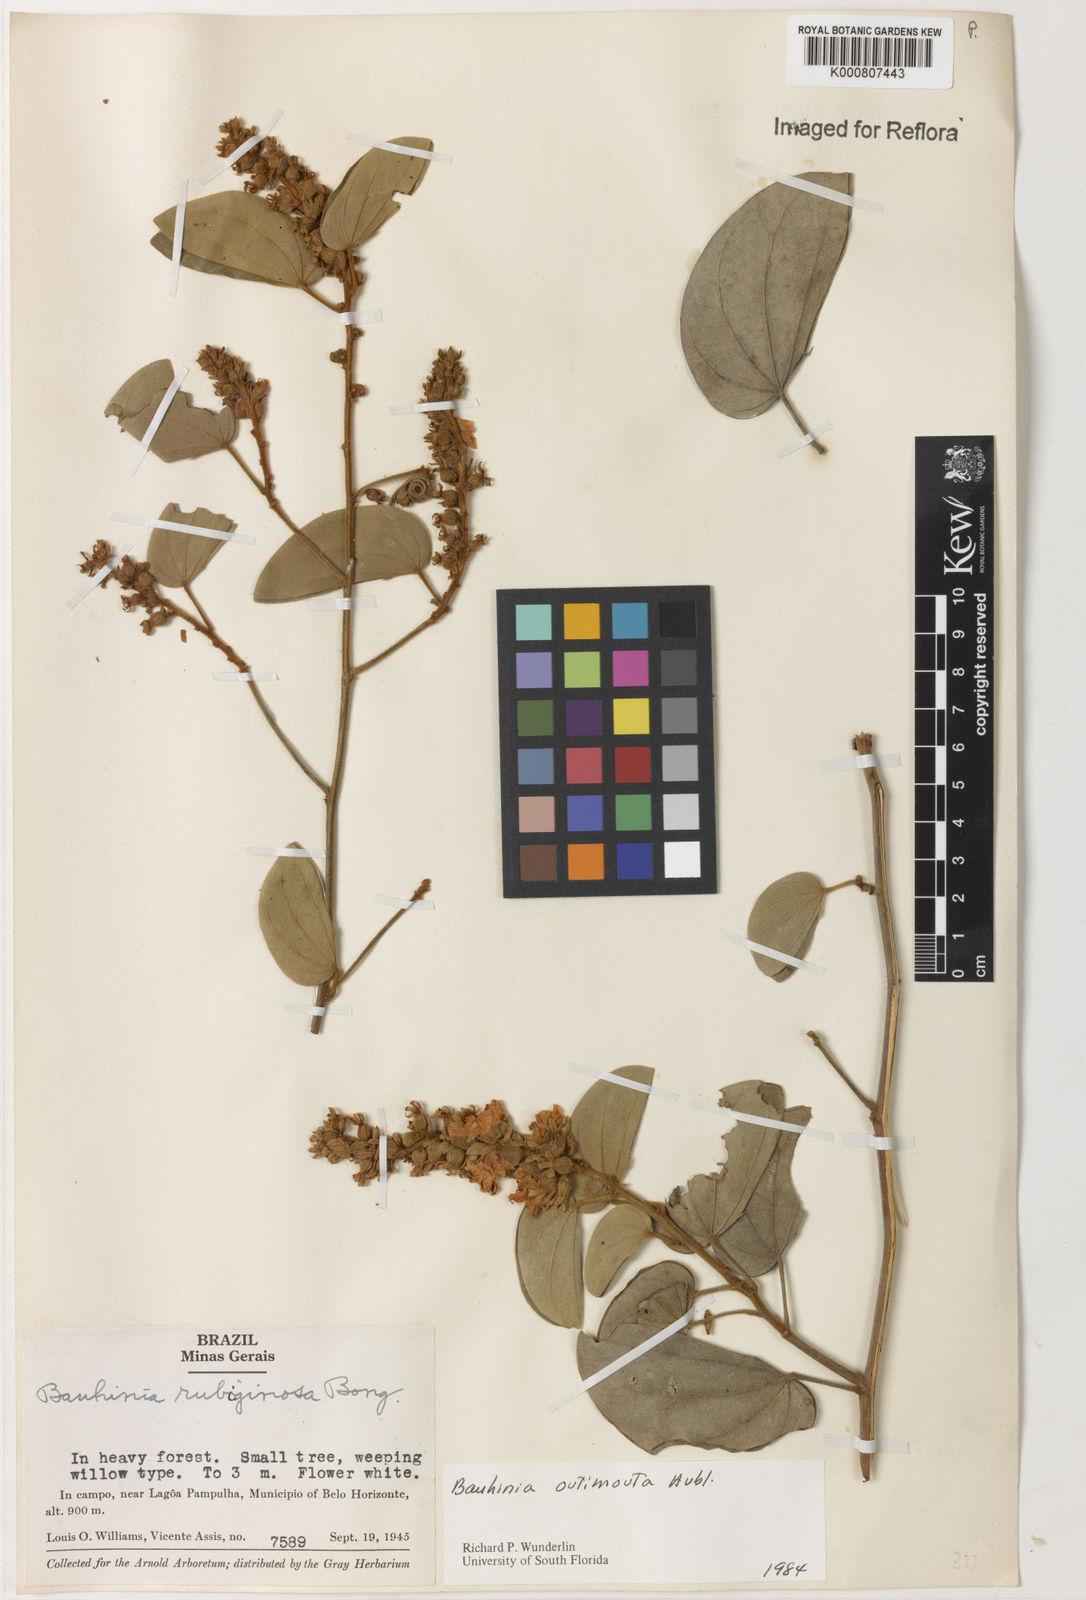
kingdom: Plantae
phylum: Tracheophyta
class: Magnoliopsida
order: Fabales
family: Fabaceae
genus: Schnella
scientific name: Schnella outimouta
